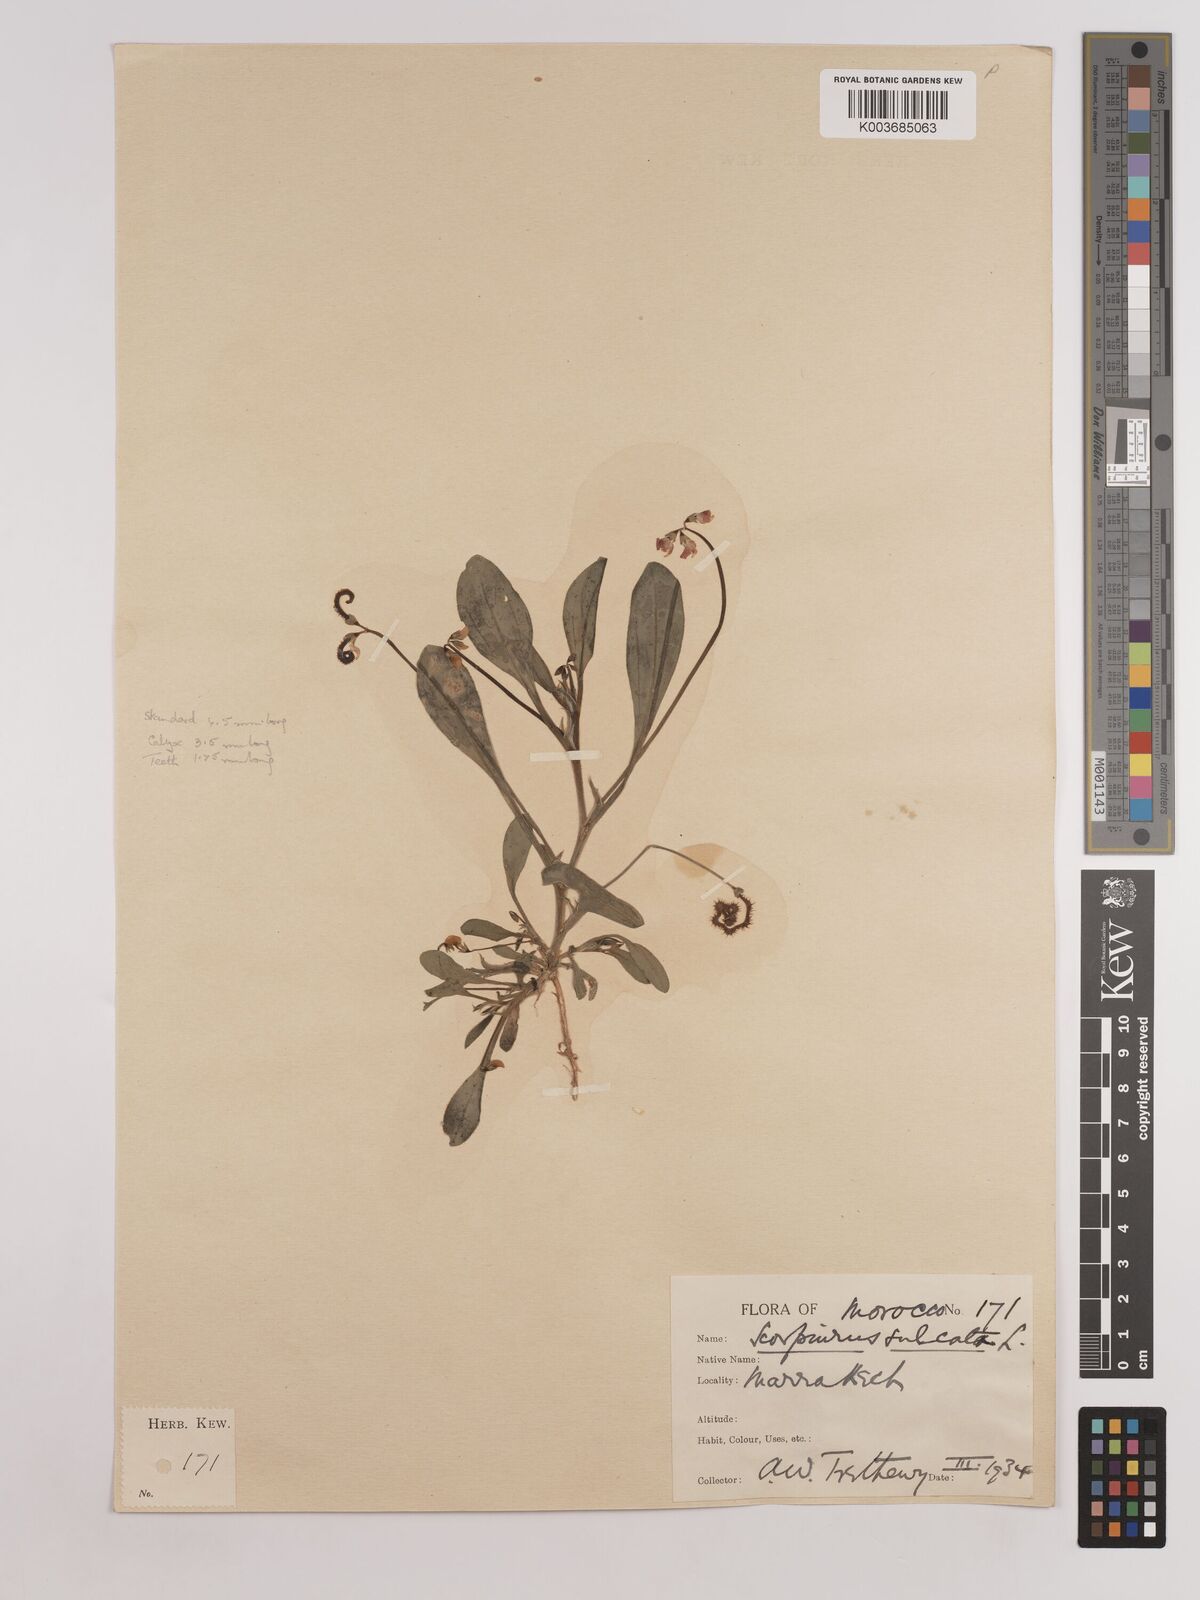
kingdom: Plantae
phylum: Tracheophyta
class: Magnoliopsida
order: Fabales
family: Fabaceae
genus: Scorpiurus
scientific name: Scorpiurus muricatus
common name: Caterpillar-plant
